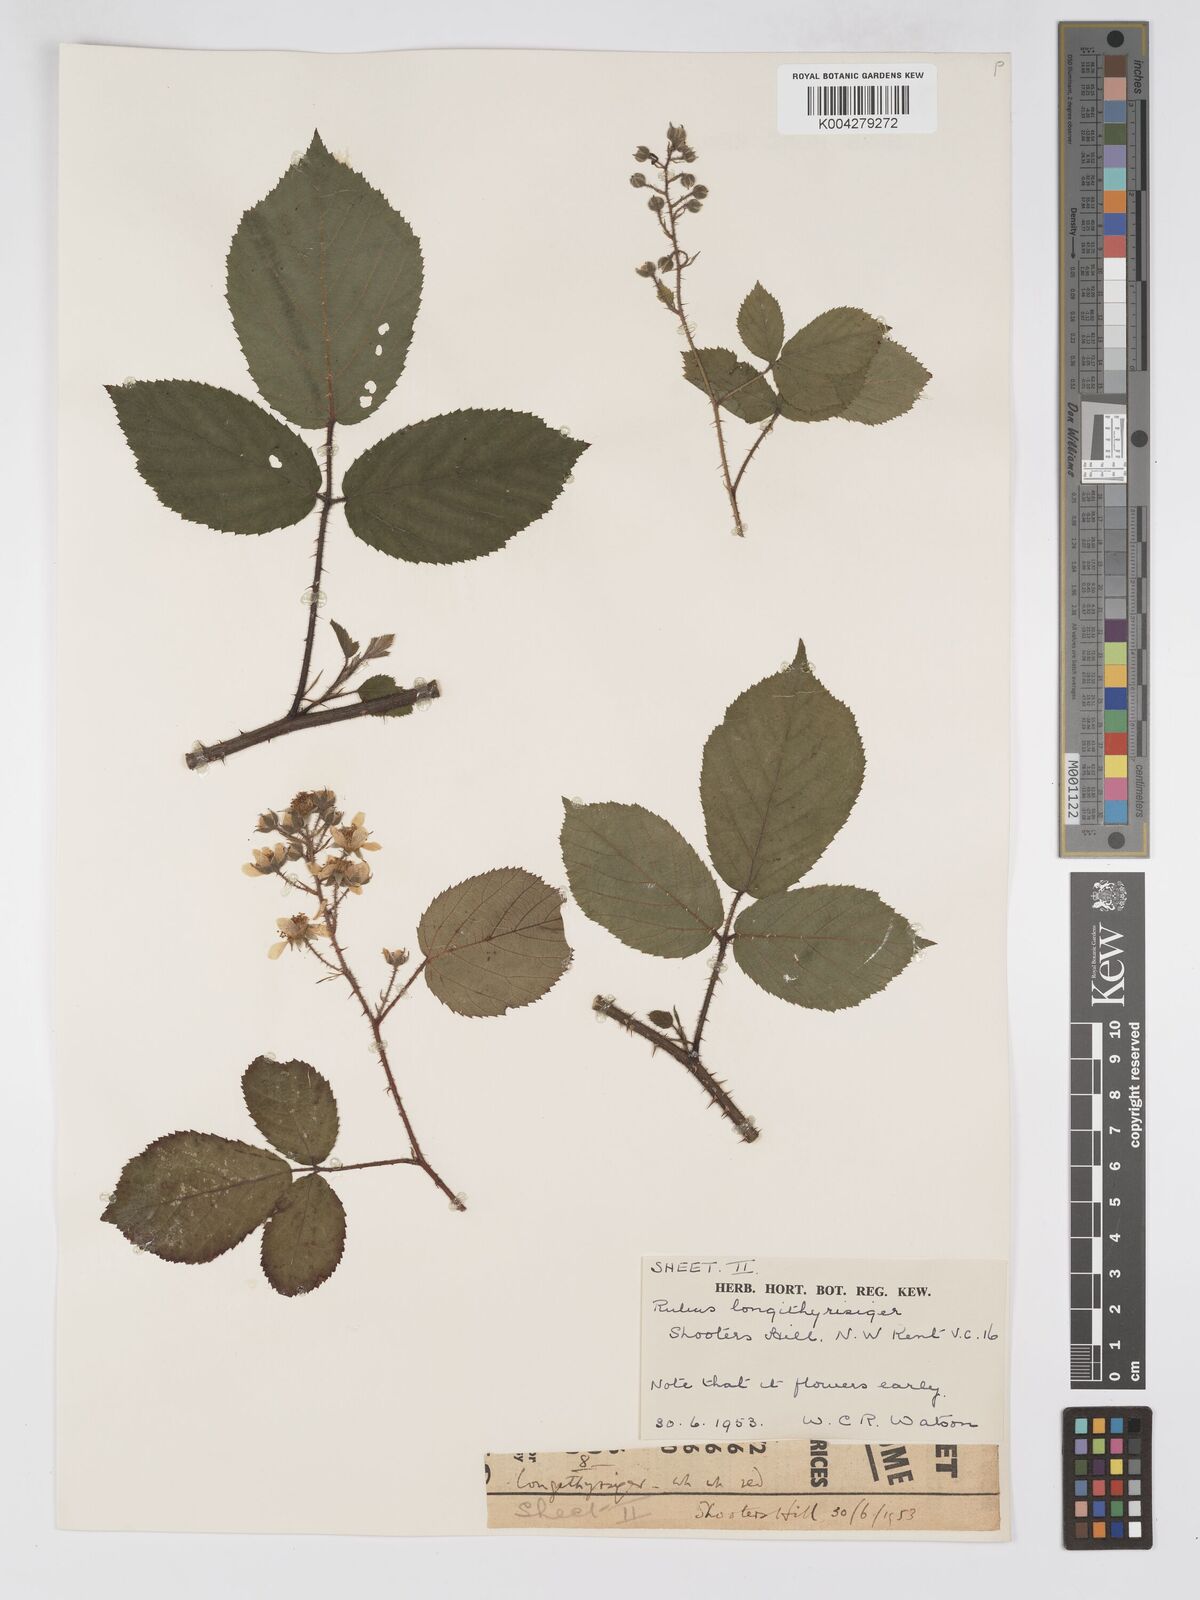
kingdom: Plantae
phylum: Tracheophyta
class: Magnoliopsida
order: Rosales
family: Rosaceae
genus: Rubus
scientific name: Rubus longithyrsiger
